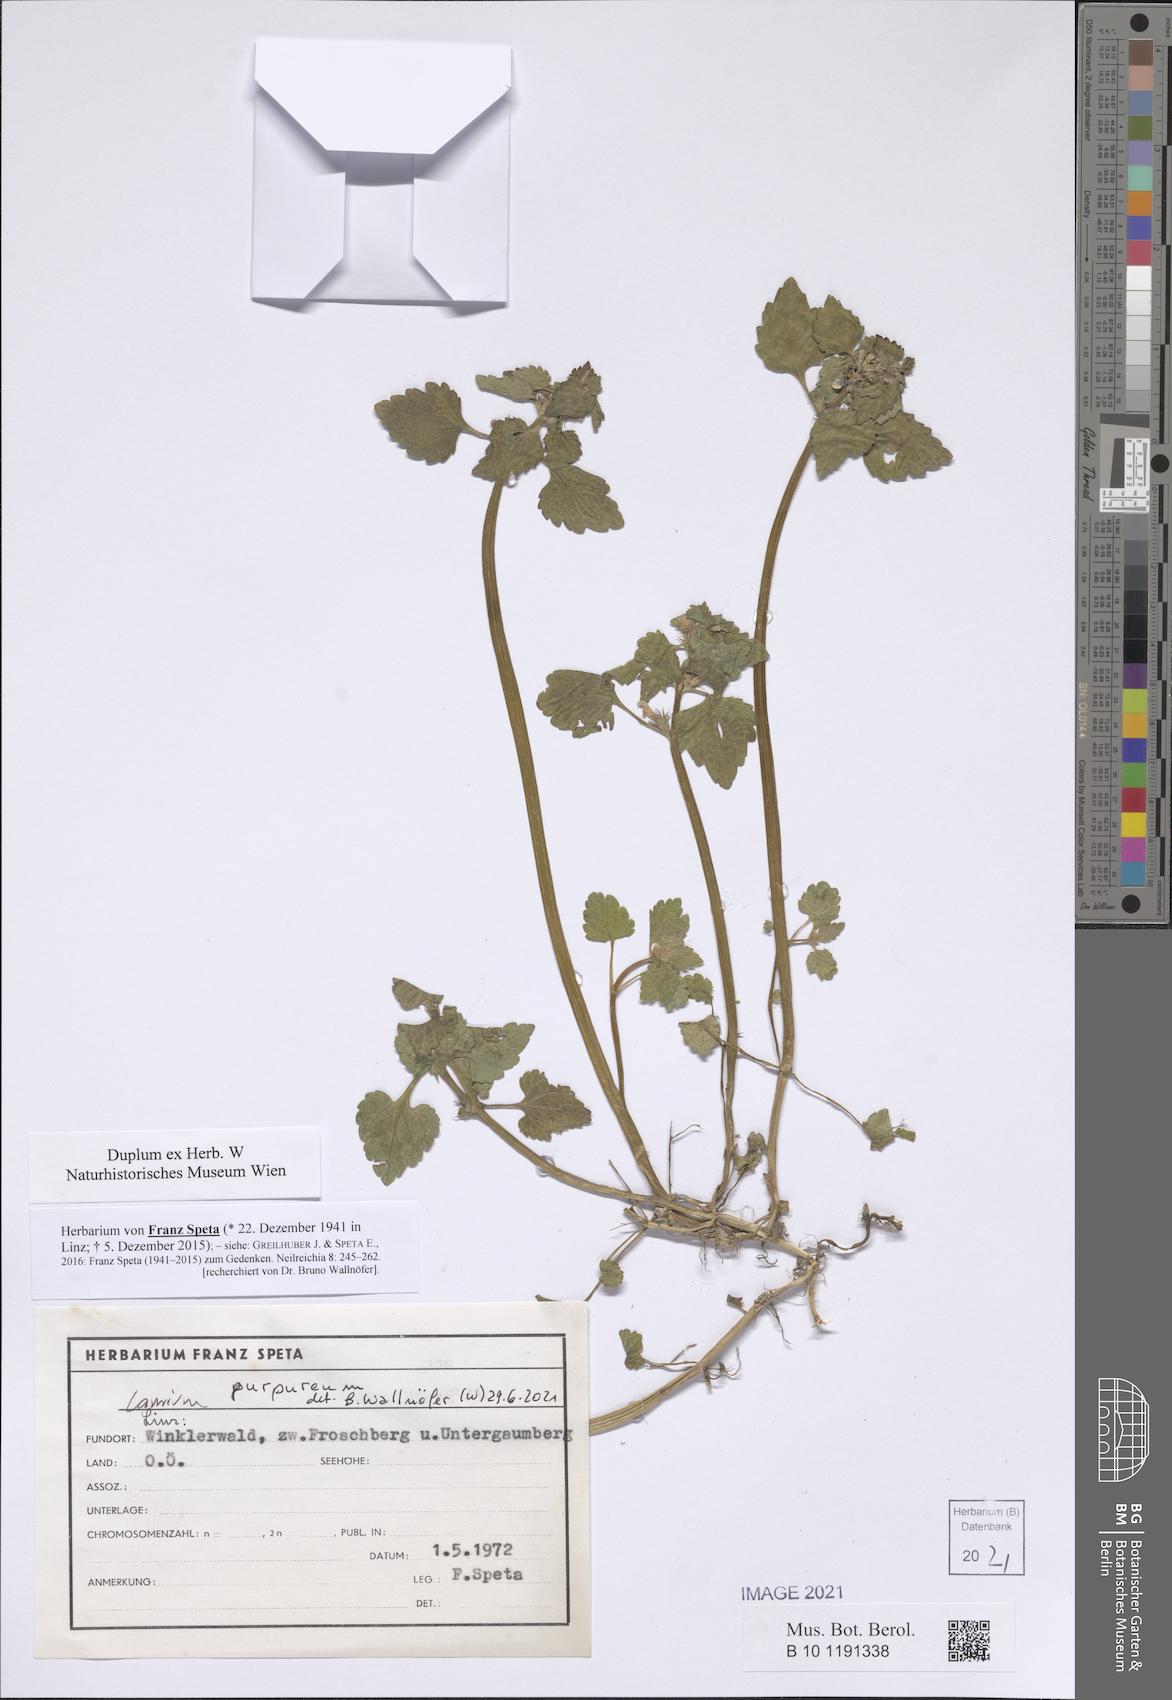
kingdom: Plantae
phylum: Tracheophyta
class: Magnoliopsida
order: Lamiales
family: Lamiaceae
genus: Lamium
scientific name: Lamium purpureum
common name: Red dead-nettle
